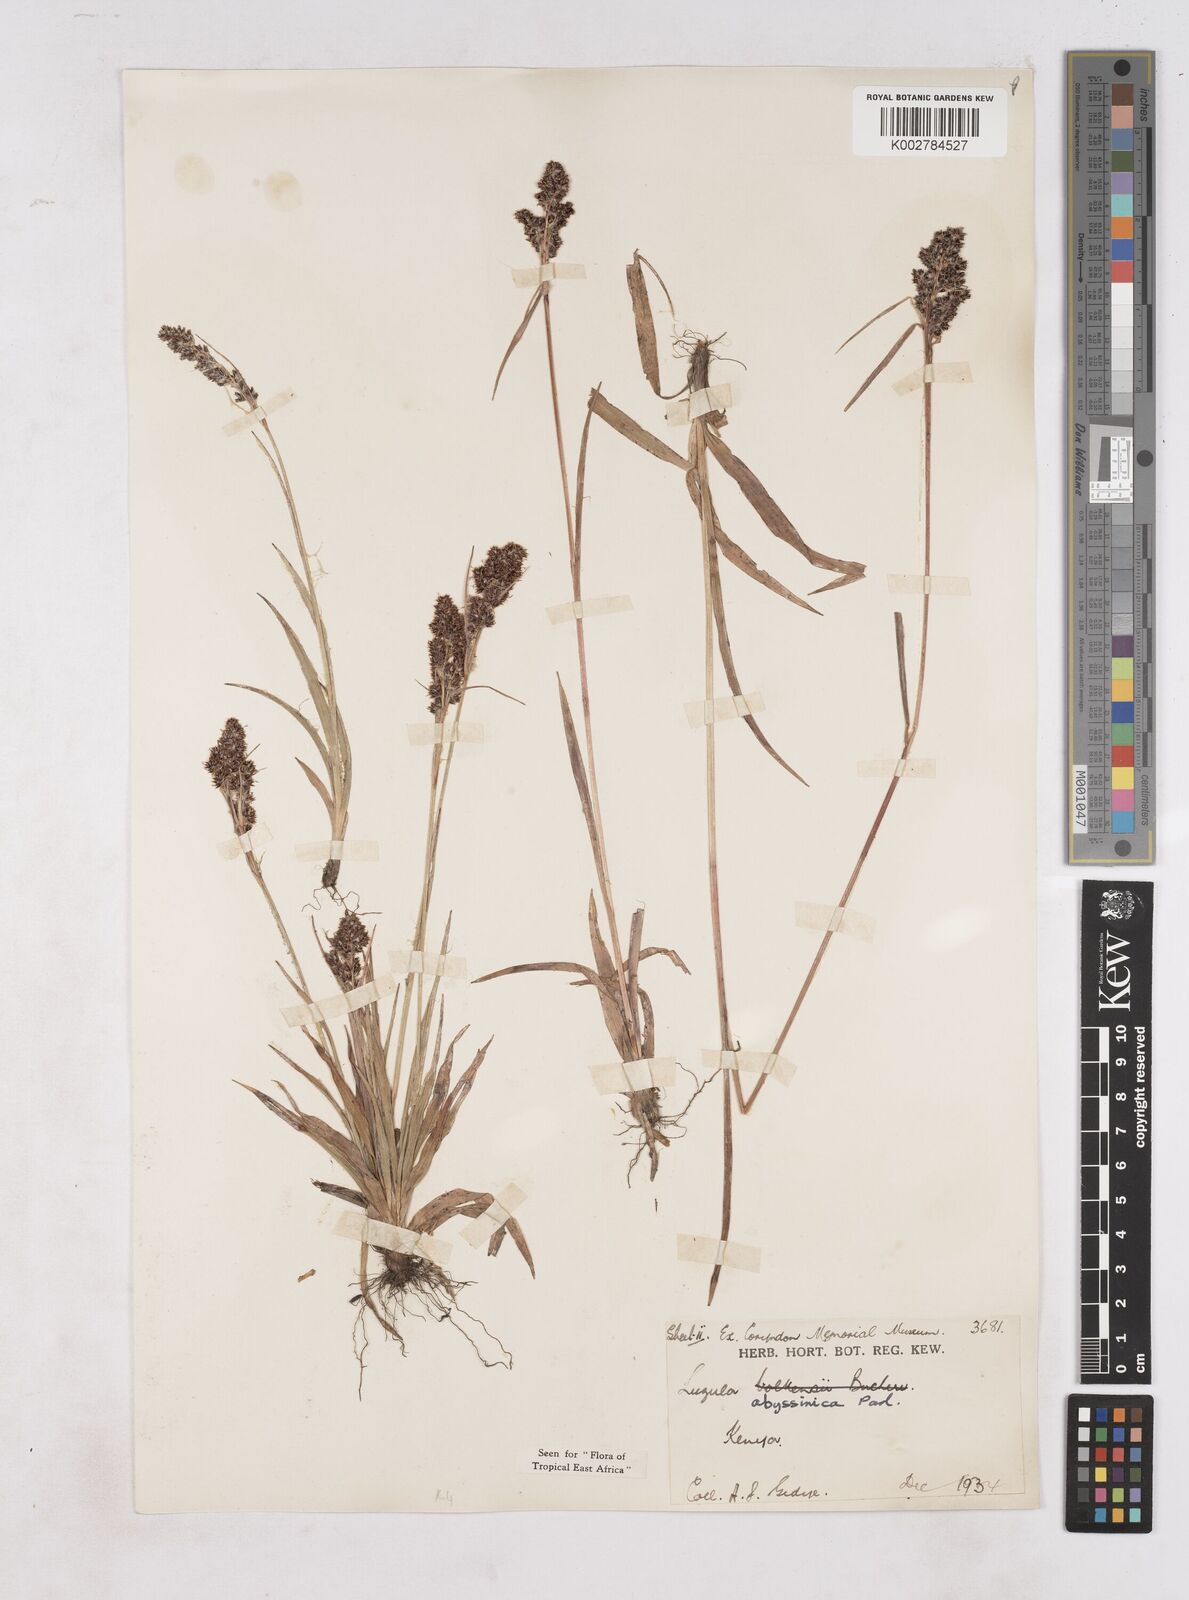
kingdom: Plantae
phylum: Tracheophyta
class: Liliopsida
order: Poales
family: Juncaceae
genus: Luzula
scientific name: Luzula abyssinica
